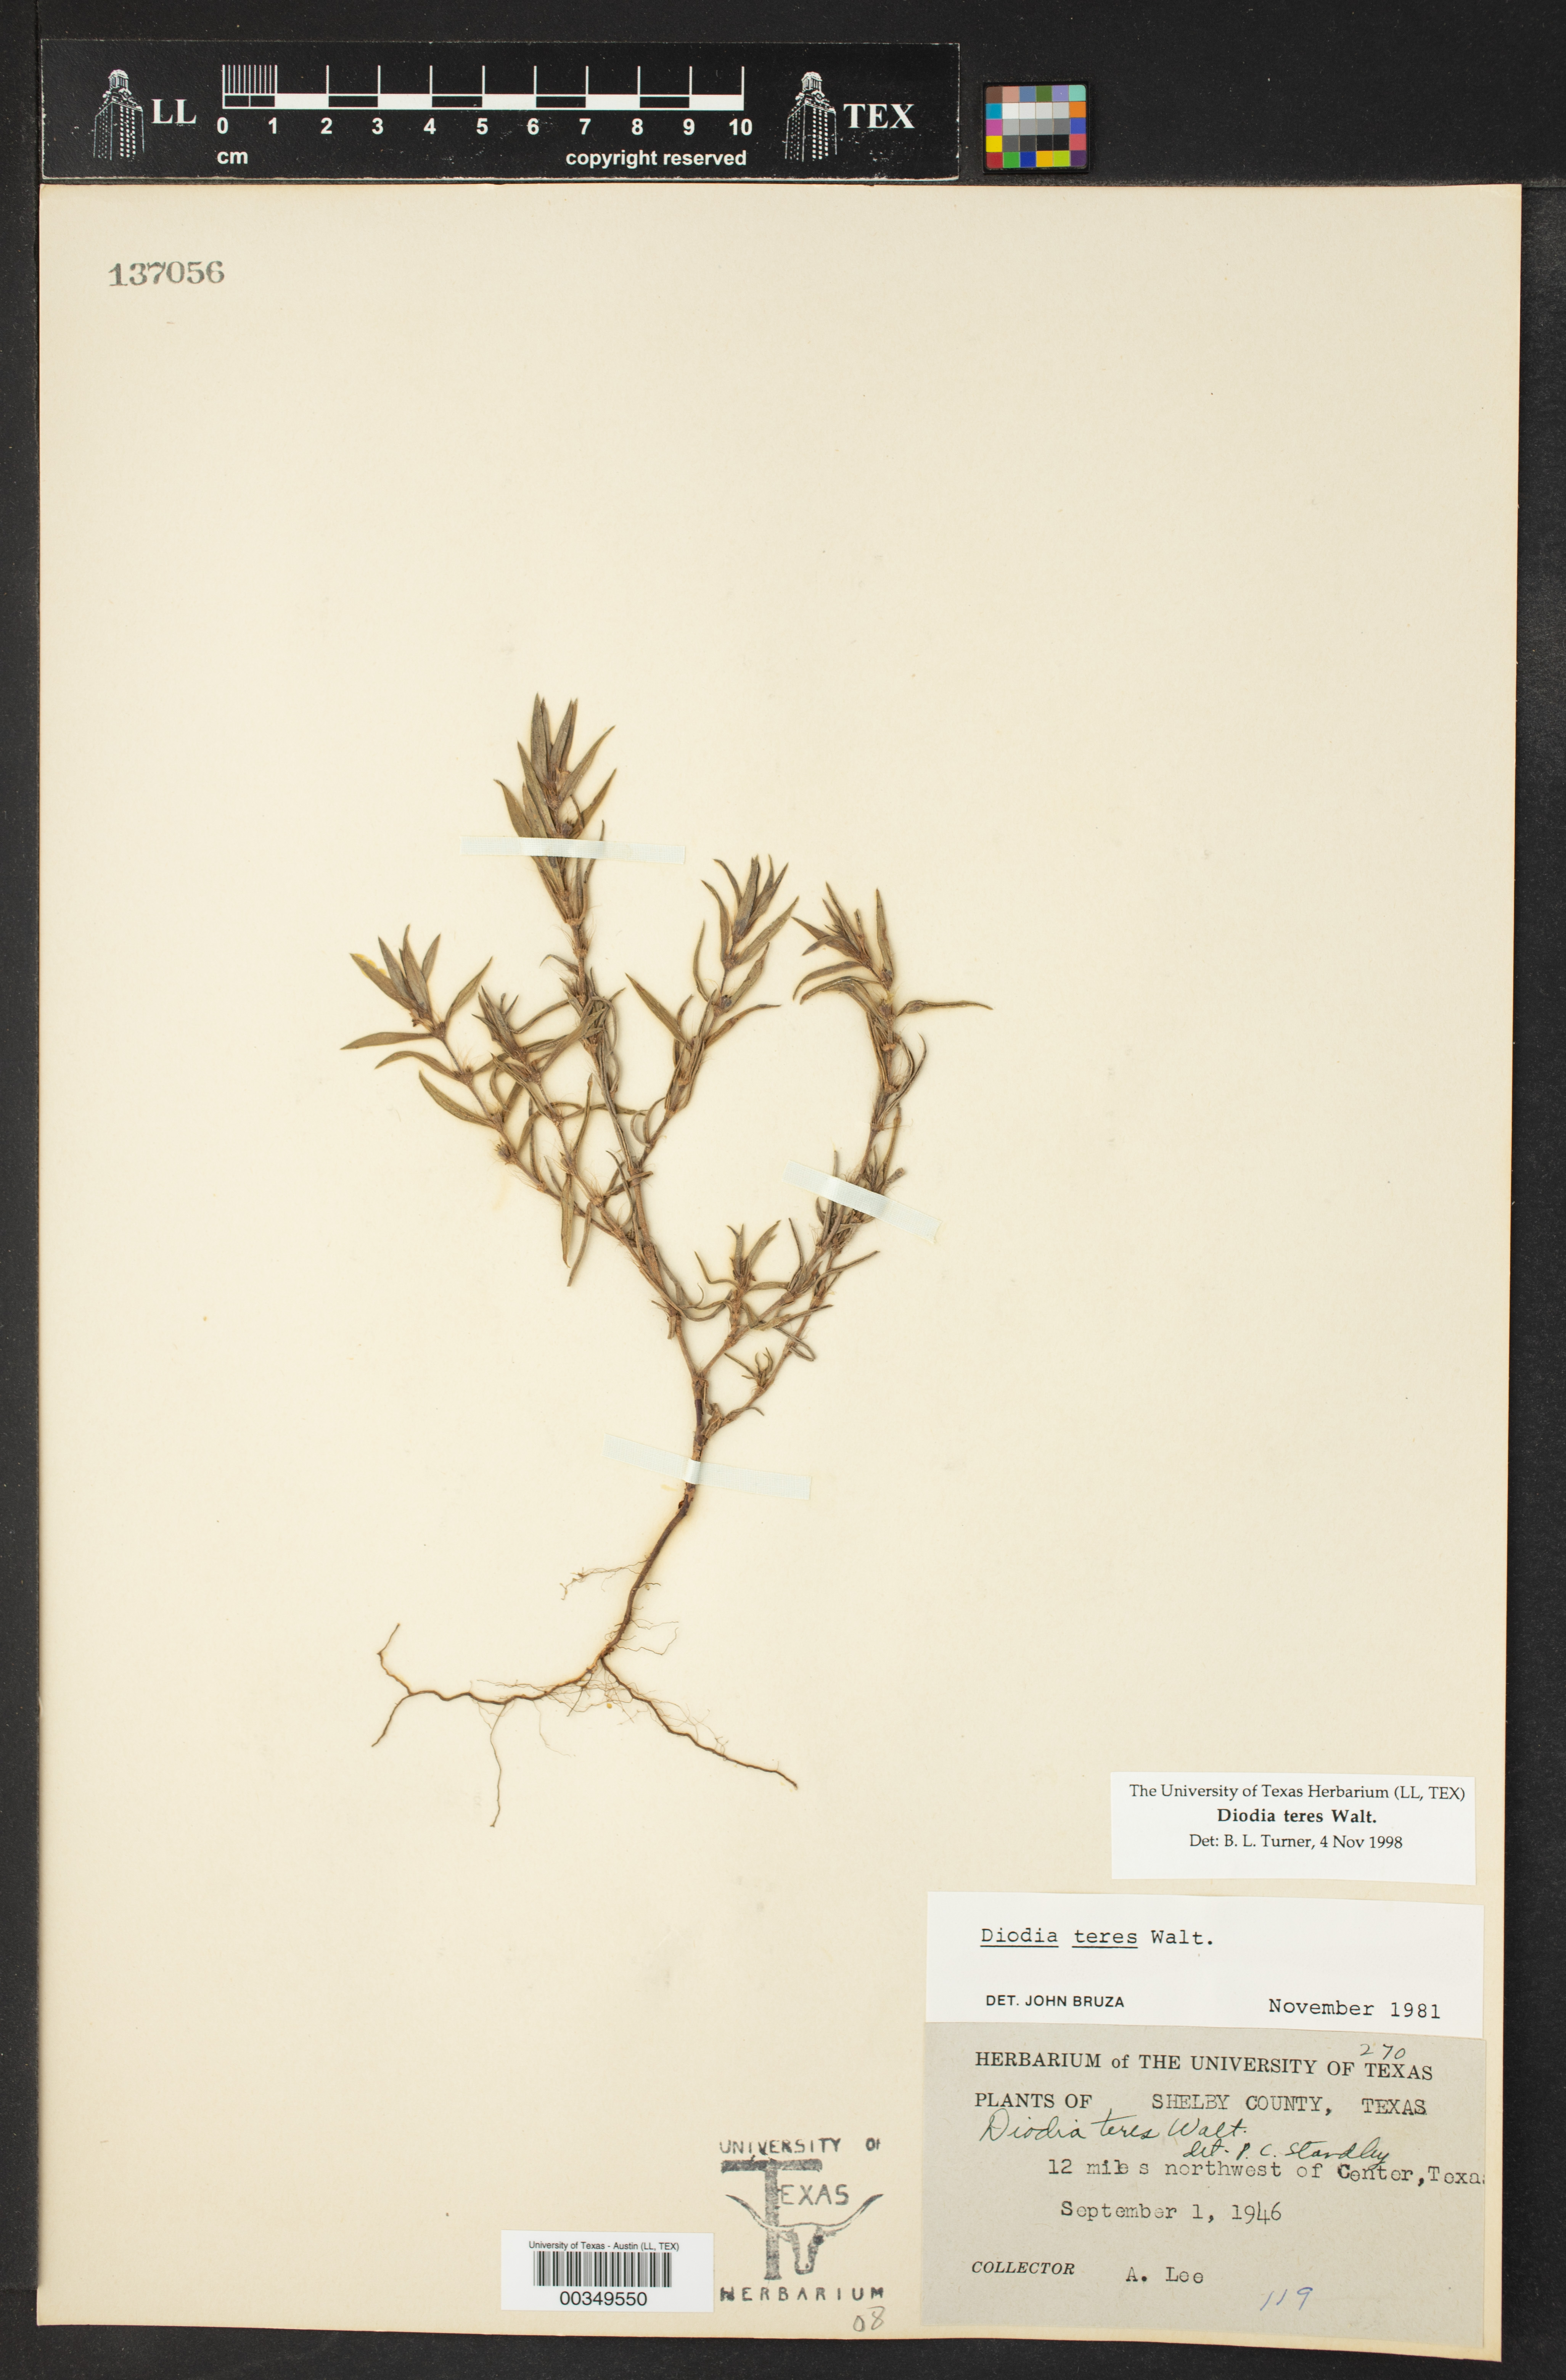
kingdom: Plantae
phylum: Tracheophyta
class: Magnoliopsida
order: Gentianales
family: Rubiaceae
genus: Hexasepalum
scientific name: Hexasepalum teres
